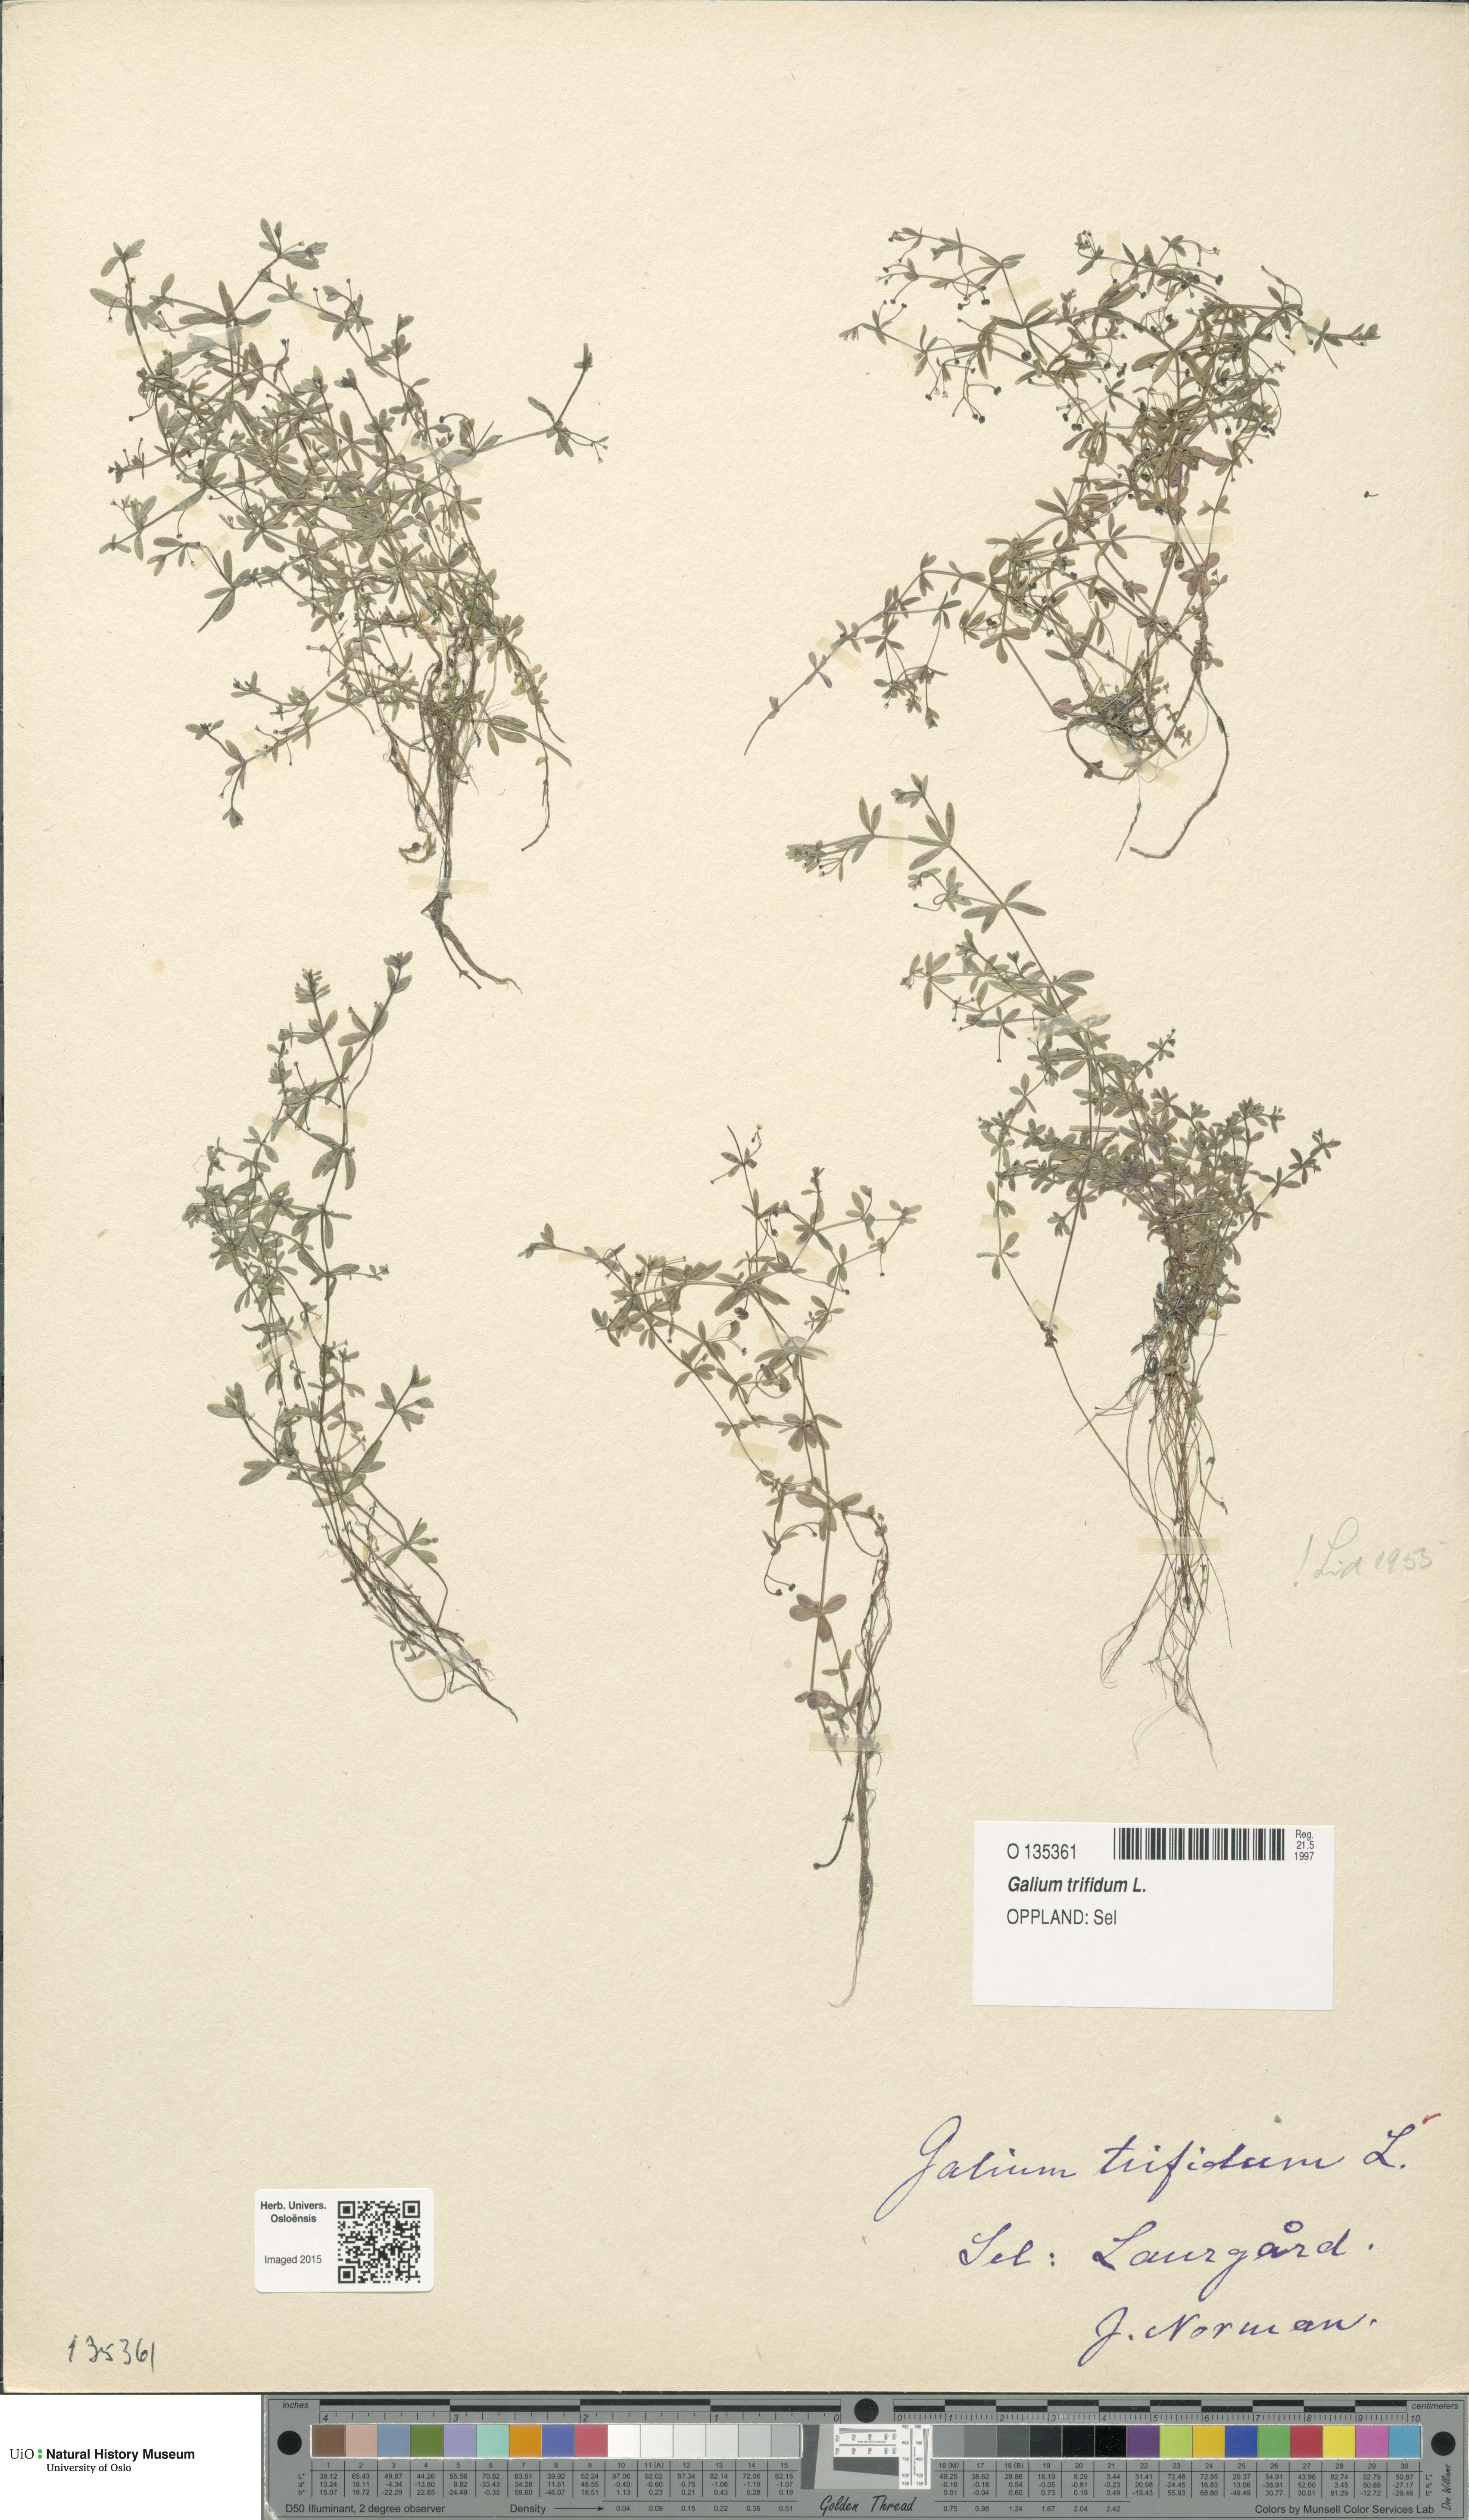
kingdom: Plantae
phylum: Tracheophyta
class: Magnoliopsida
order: Gentianales
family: Rubiaceae
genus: Galium
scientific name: Galium trifidum
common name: Small bedstraw
